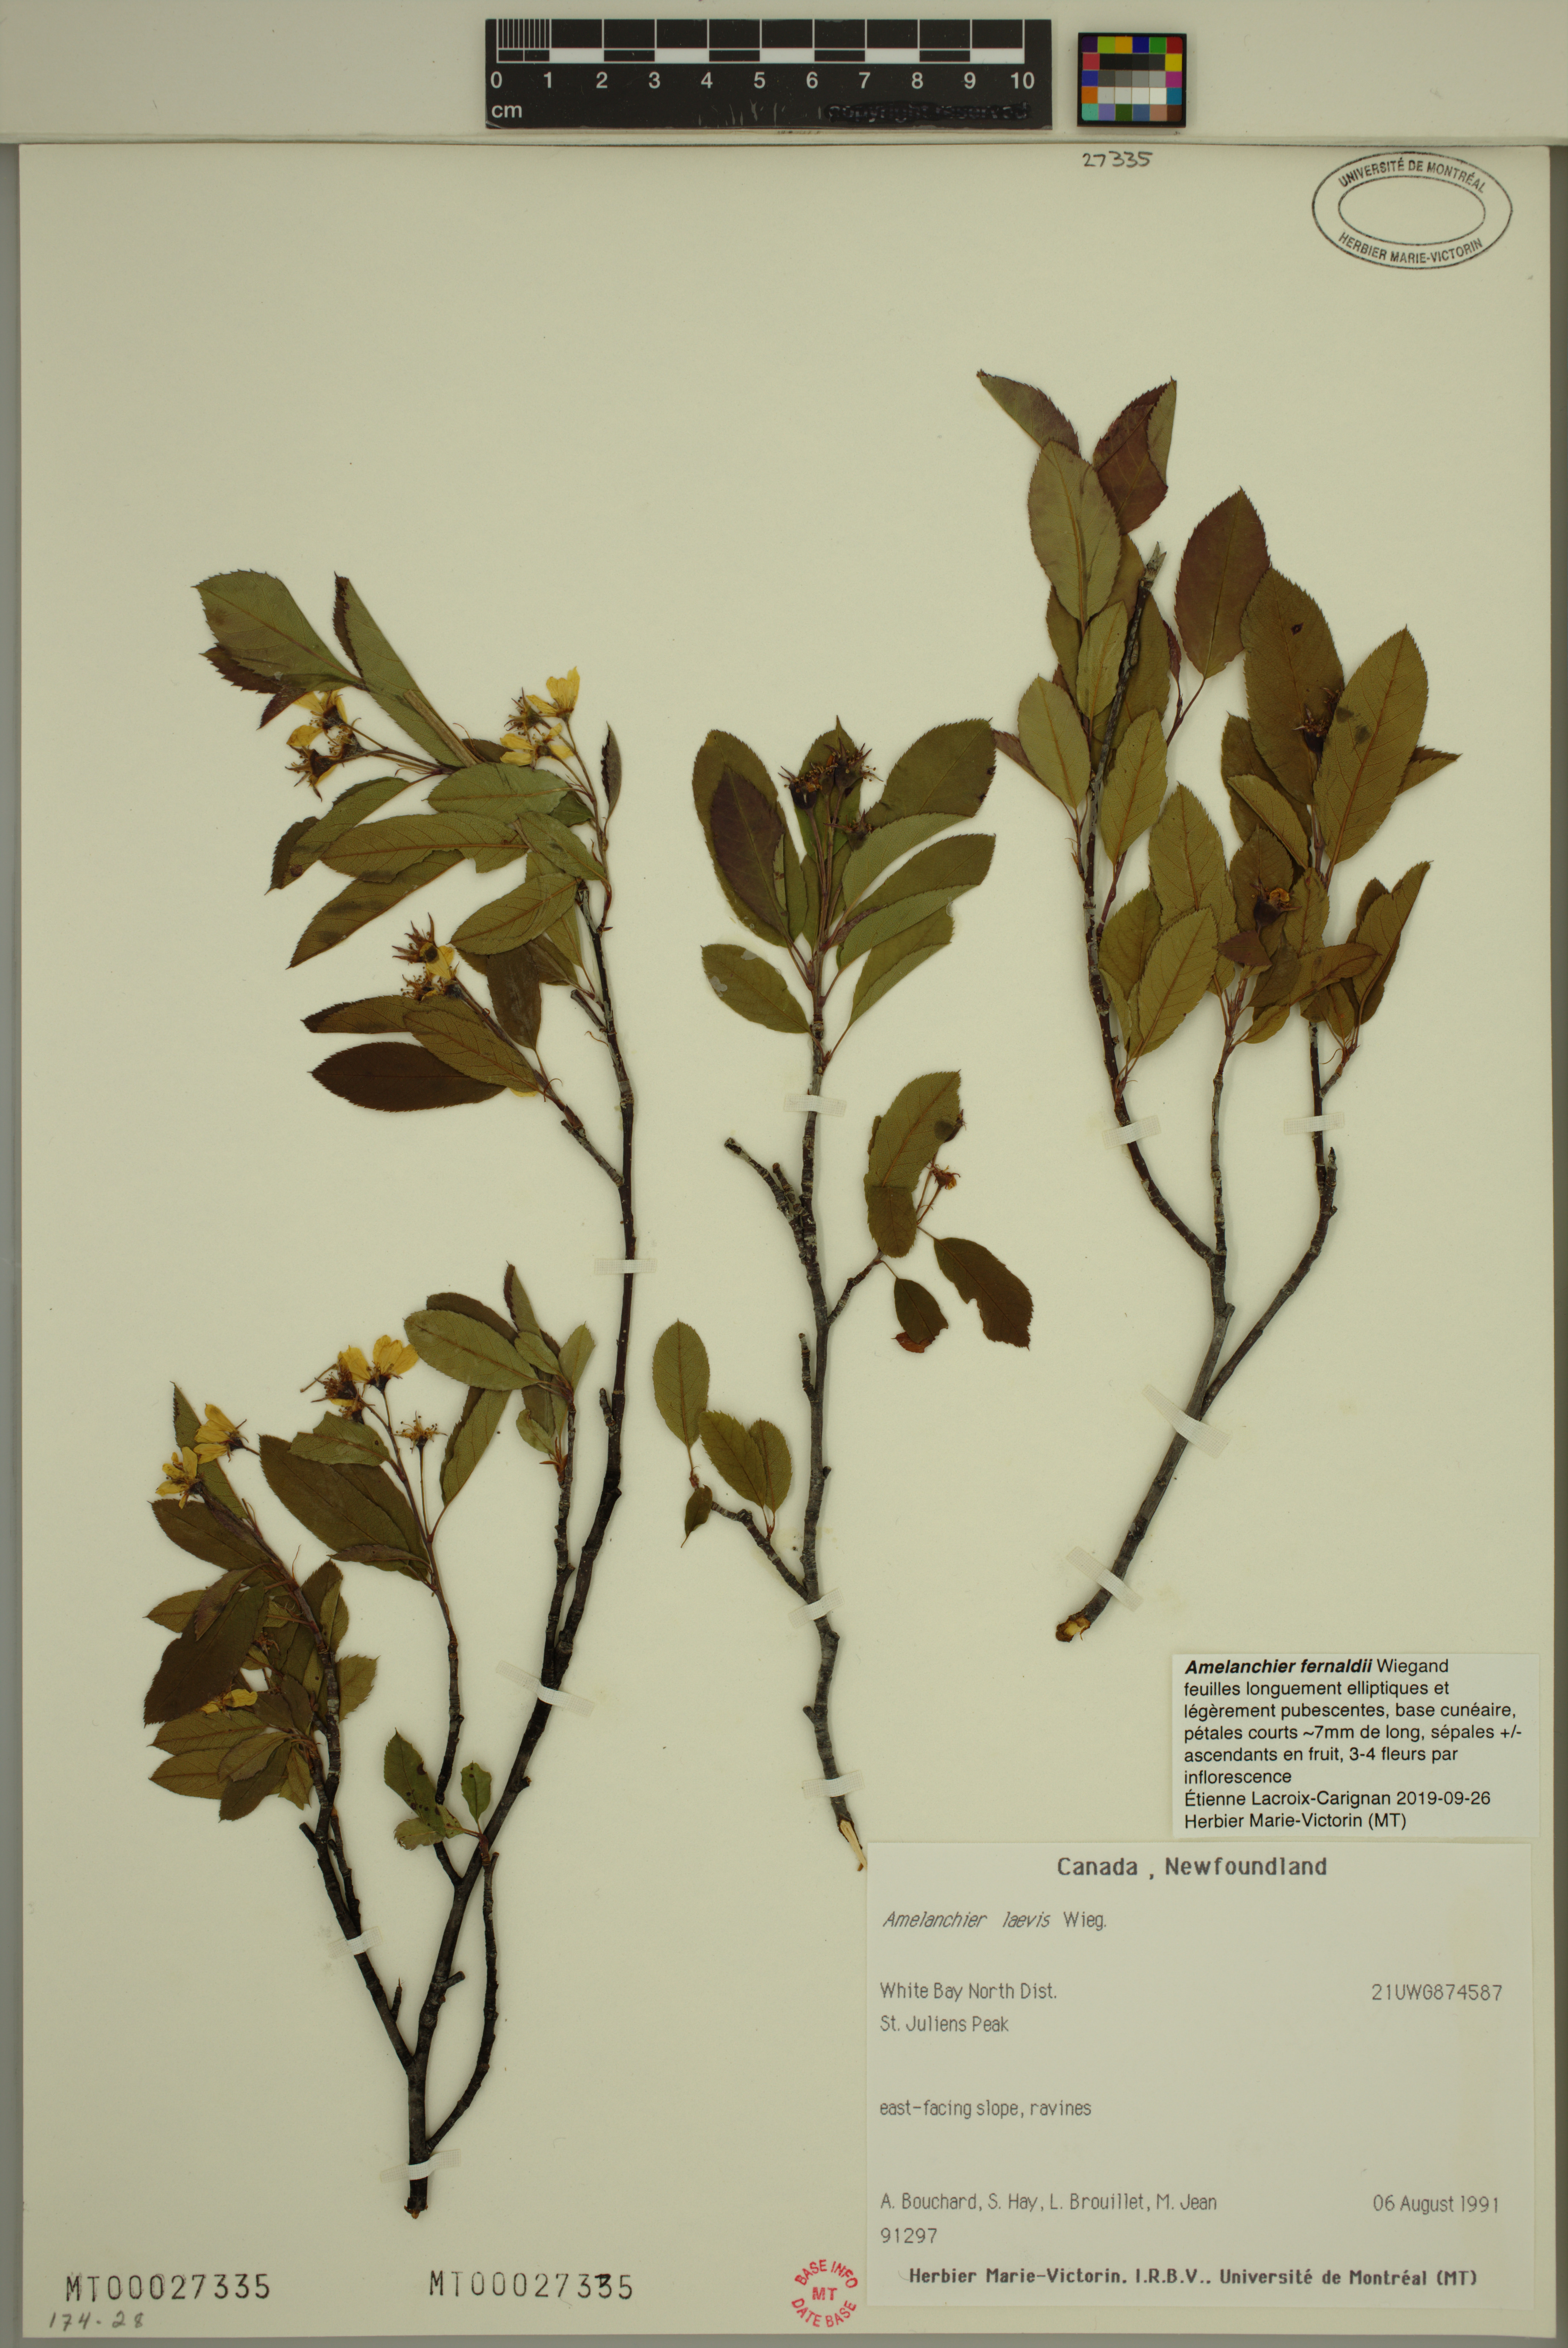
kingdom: Plantae
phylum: Tracheophyta
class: Magnoliopsida
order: Rosales
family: Rosaceae
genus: Amelanchier
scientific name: Amelanchier canadensis
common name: Thicket serviceberry
